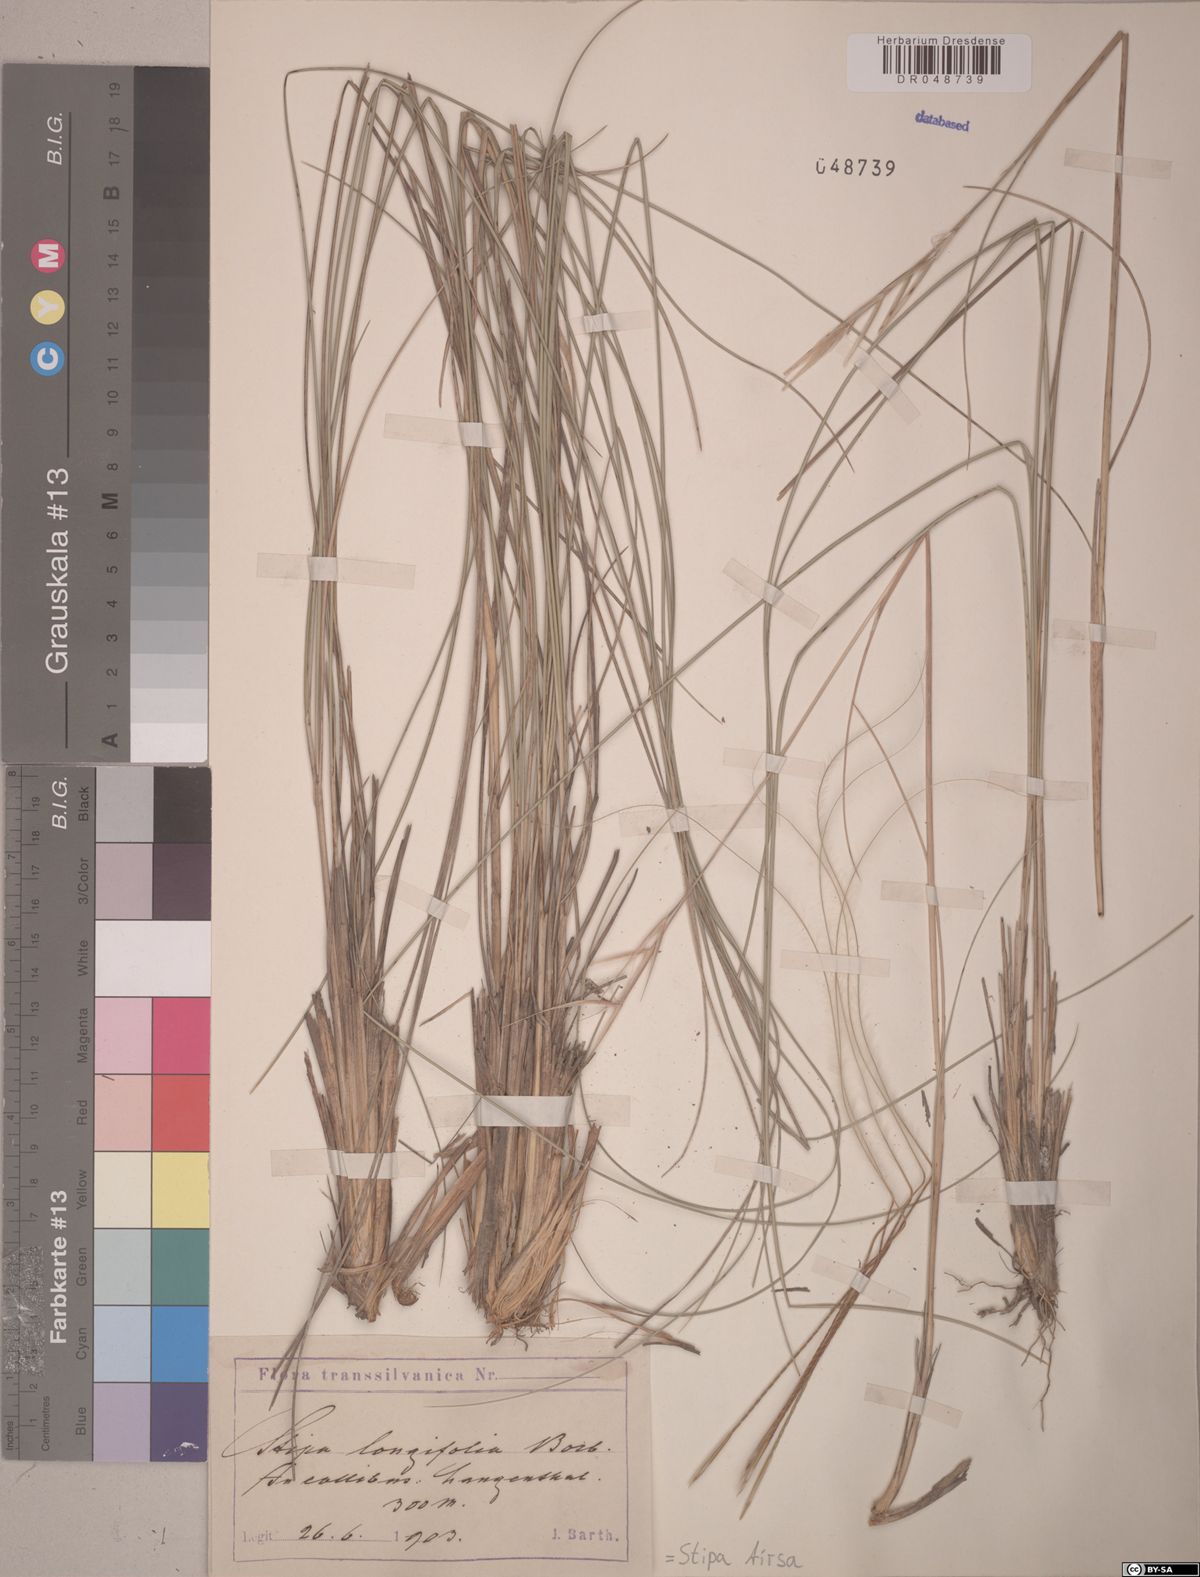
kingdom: Plantae
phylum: Tracheophyta
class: Liliopsida
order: Poales
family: Poaceae
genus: Stipa
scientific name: Stipa tirsa
